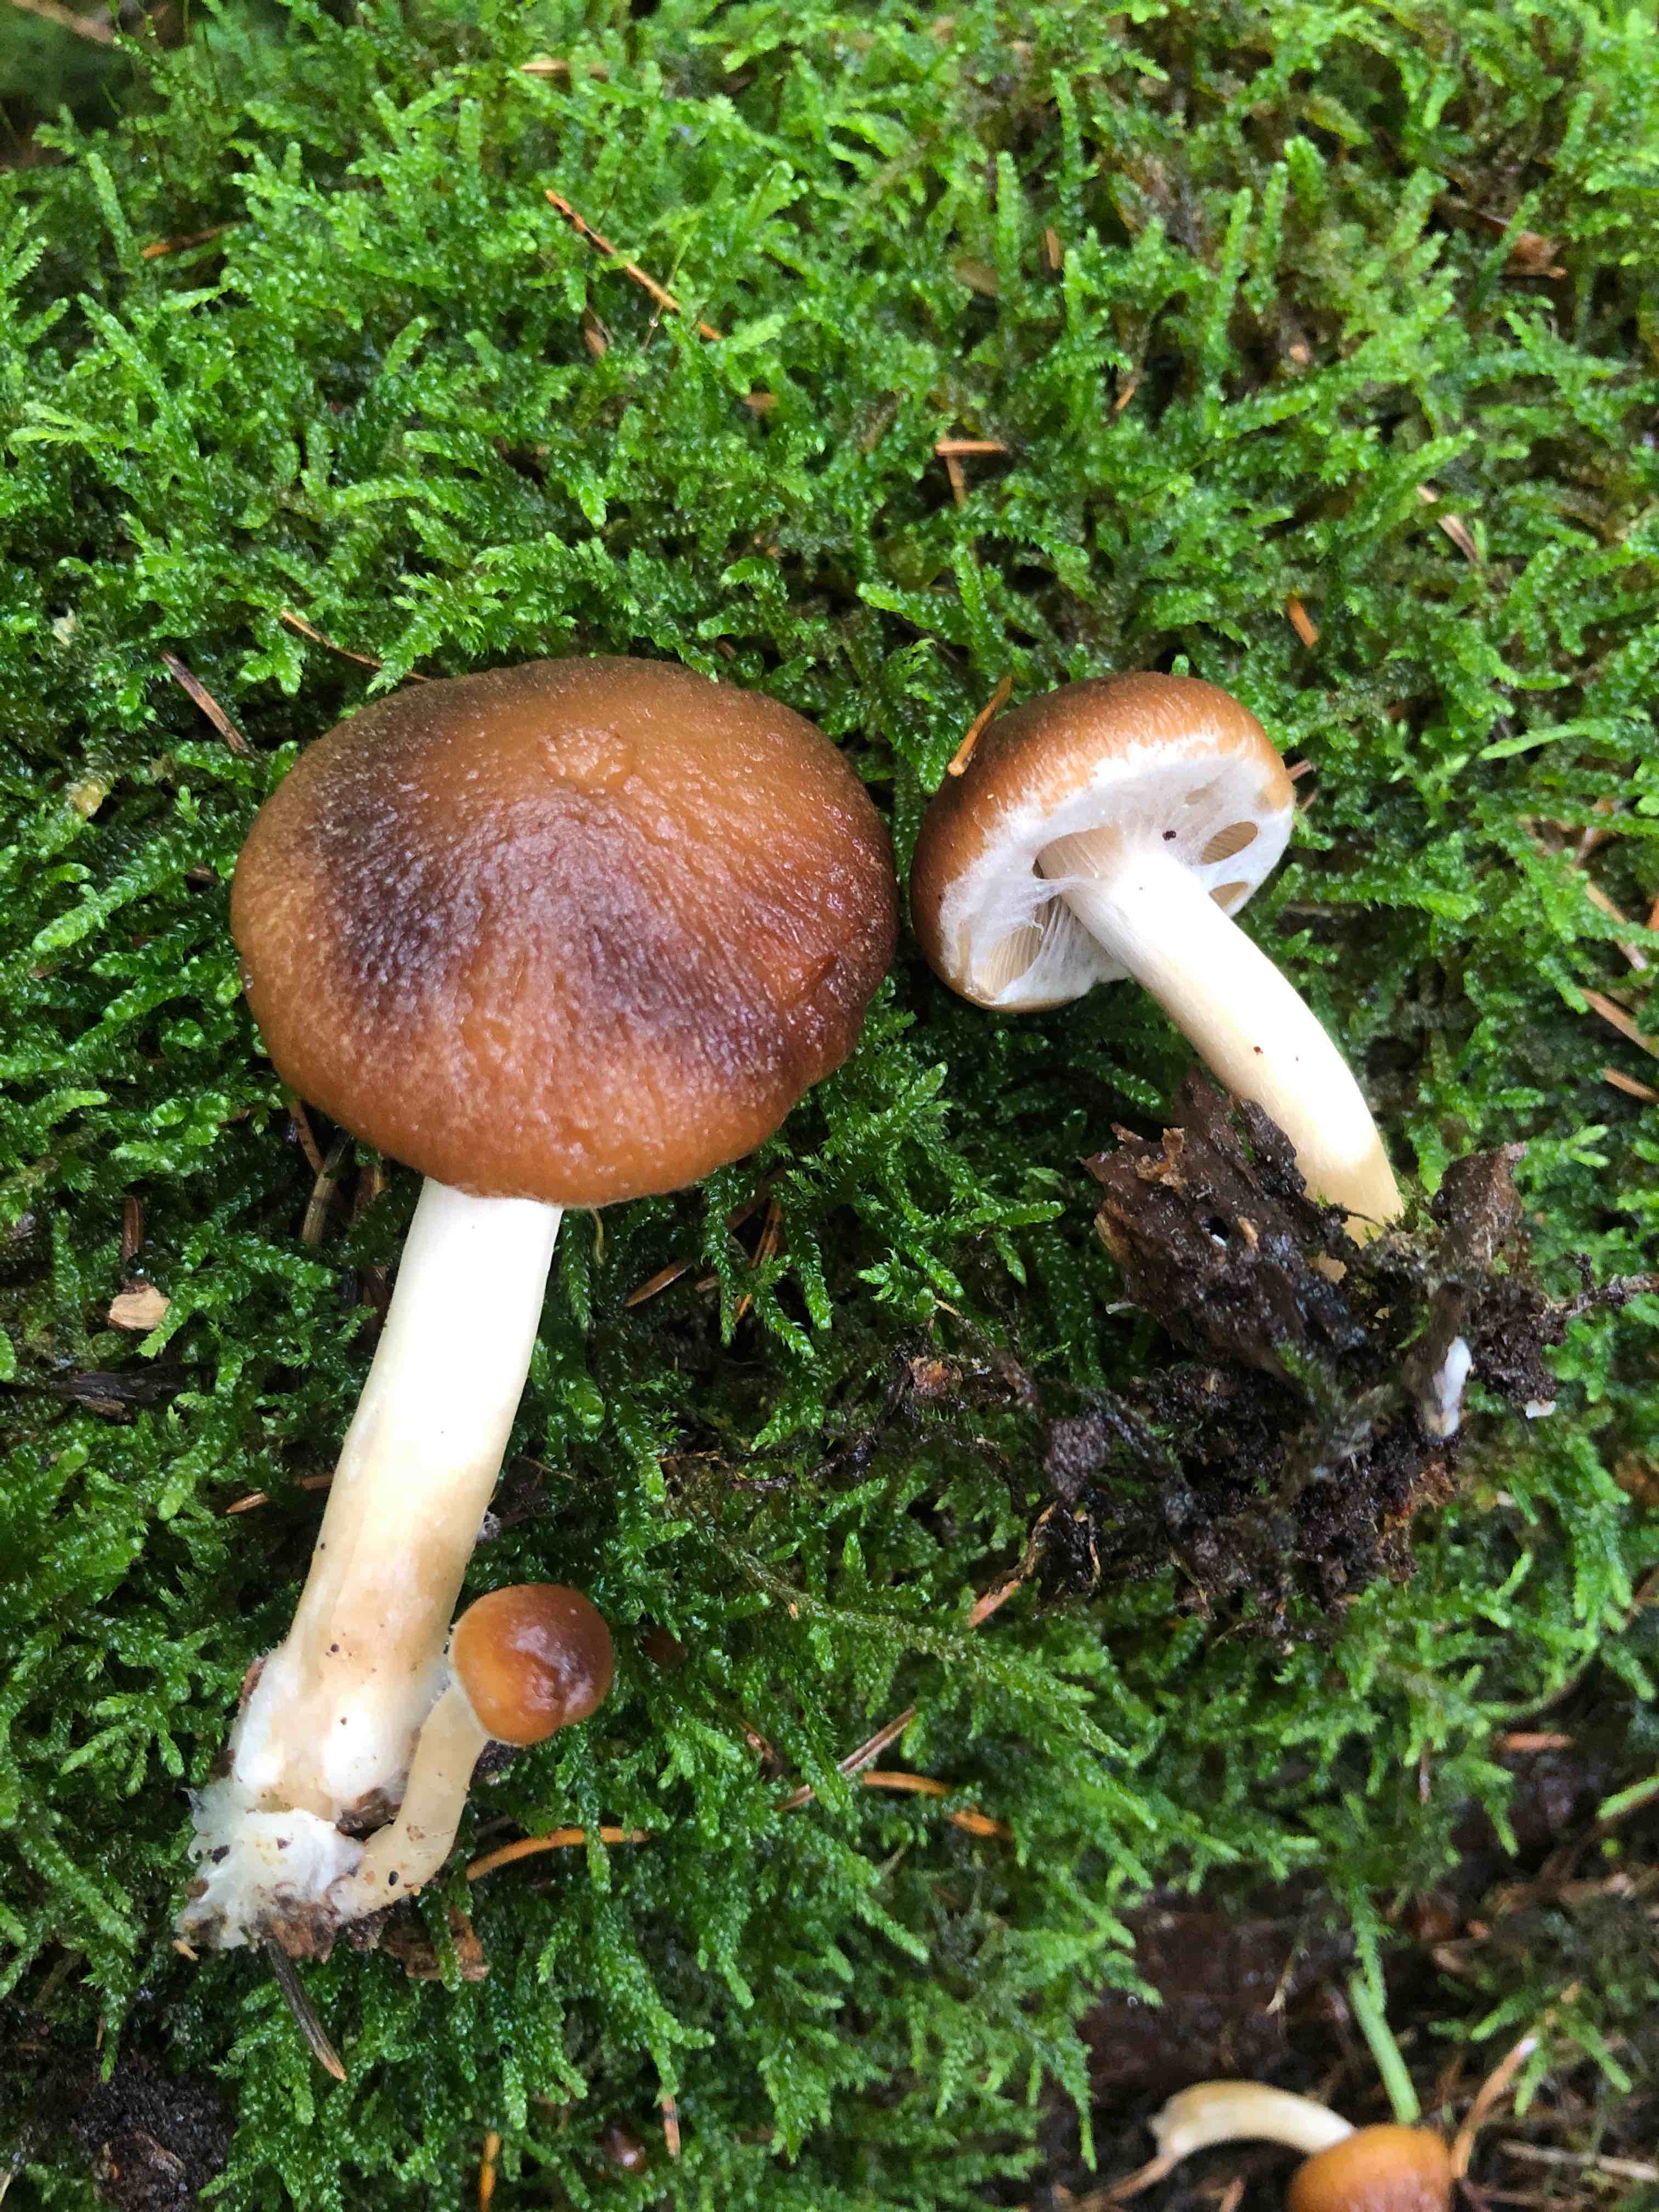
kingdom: Fungi
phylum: Basidiomycota
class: Agaricomycetes
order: Agaricales
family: Psathyrellaceae
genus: Psathyrella
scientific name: Psathyrella piluliformis
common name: lysstokket mørkhat
